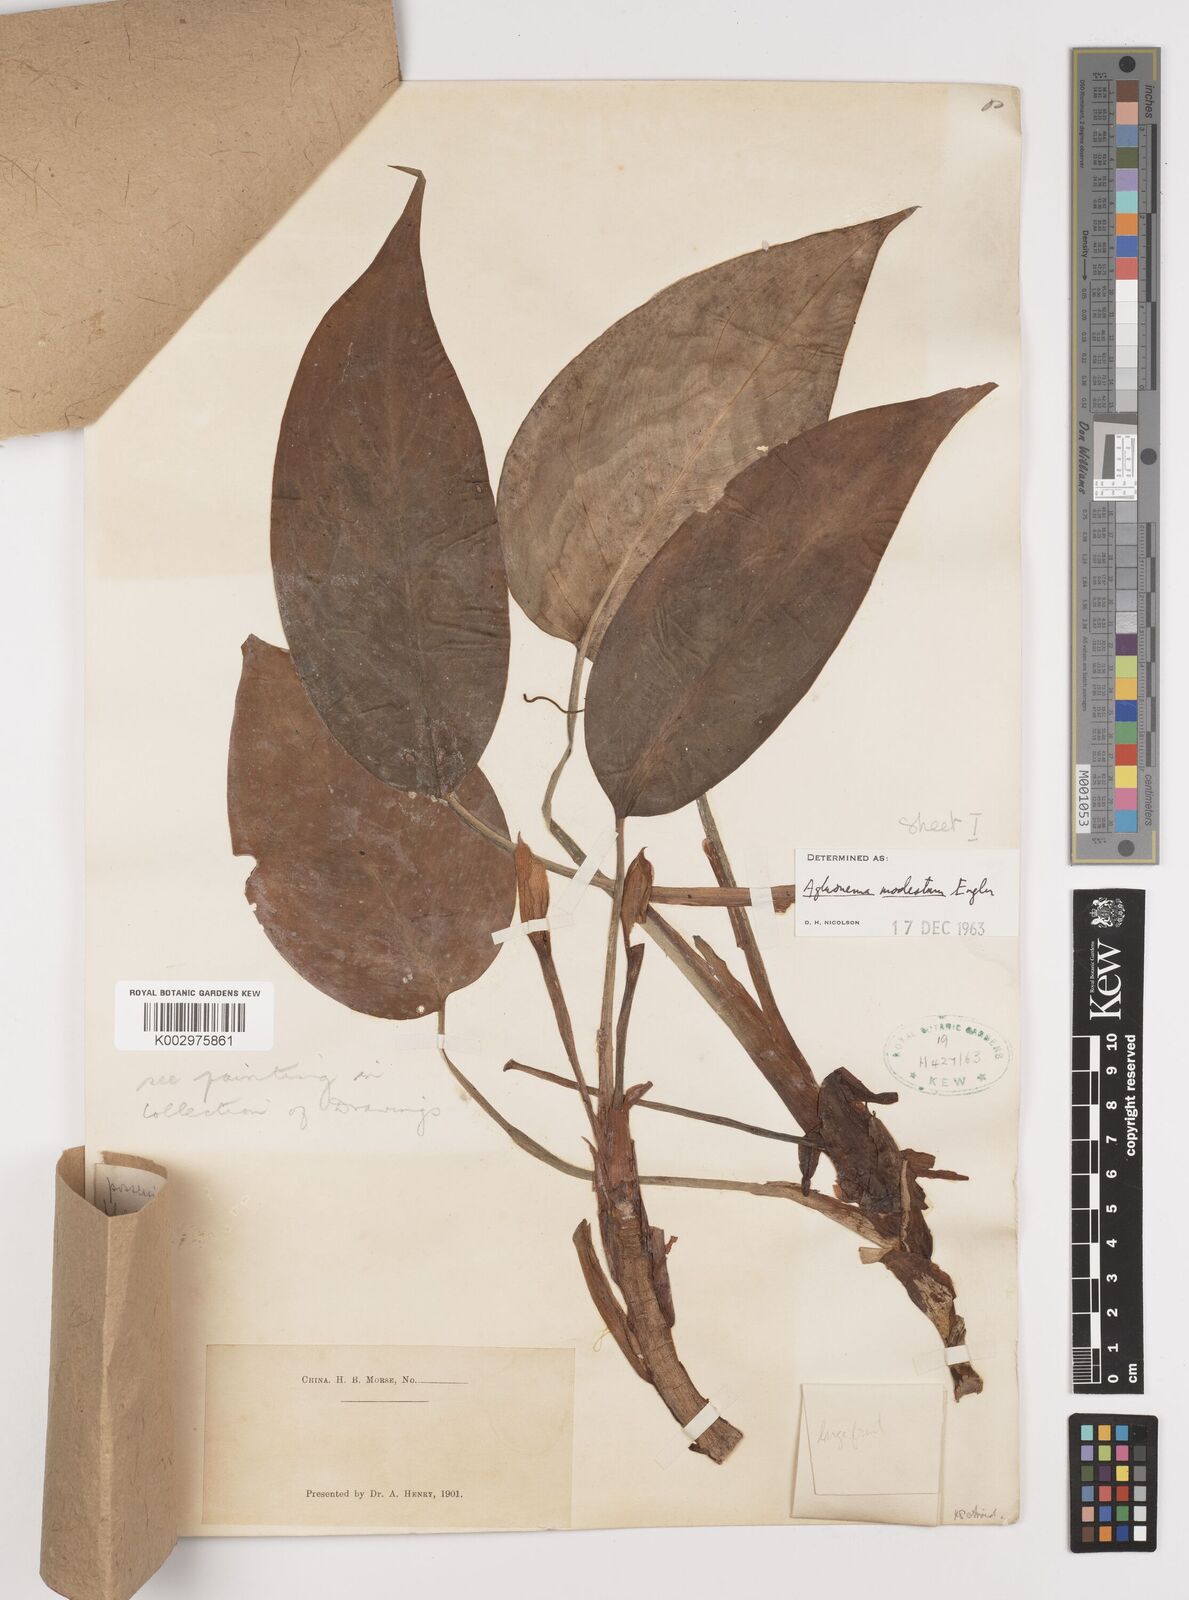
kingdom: Plantae
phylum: Tracheophyta
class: Liliopsida
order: Alismatales
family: Araceae
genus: Aglaonema
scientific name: Aglaonema modestum
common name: Chinese evergreen
